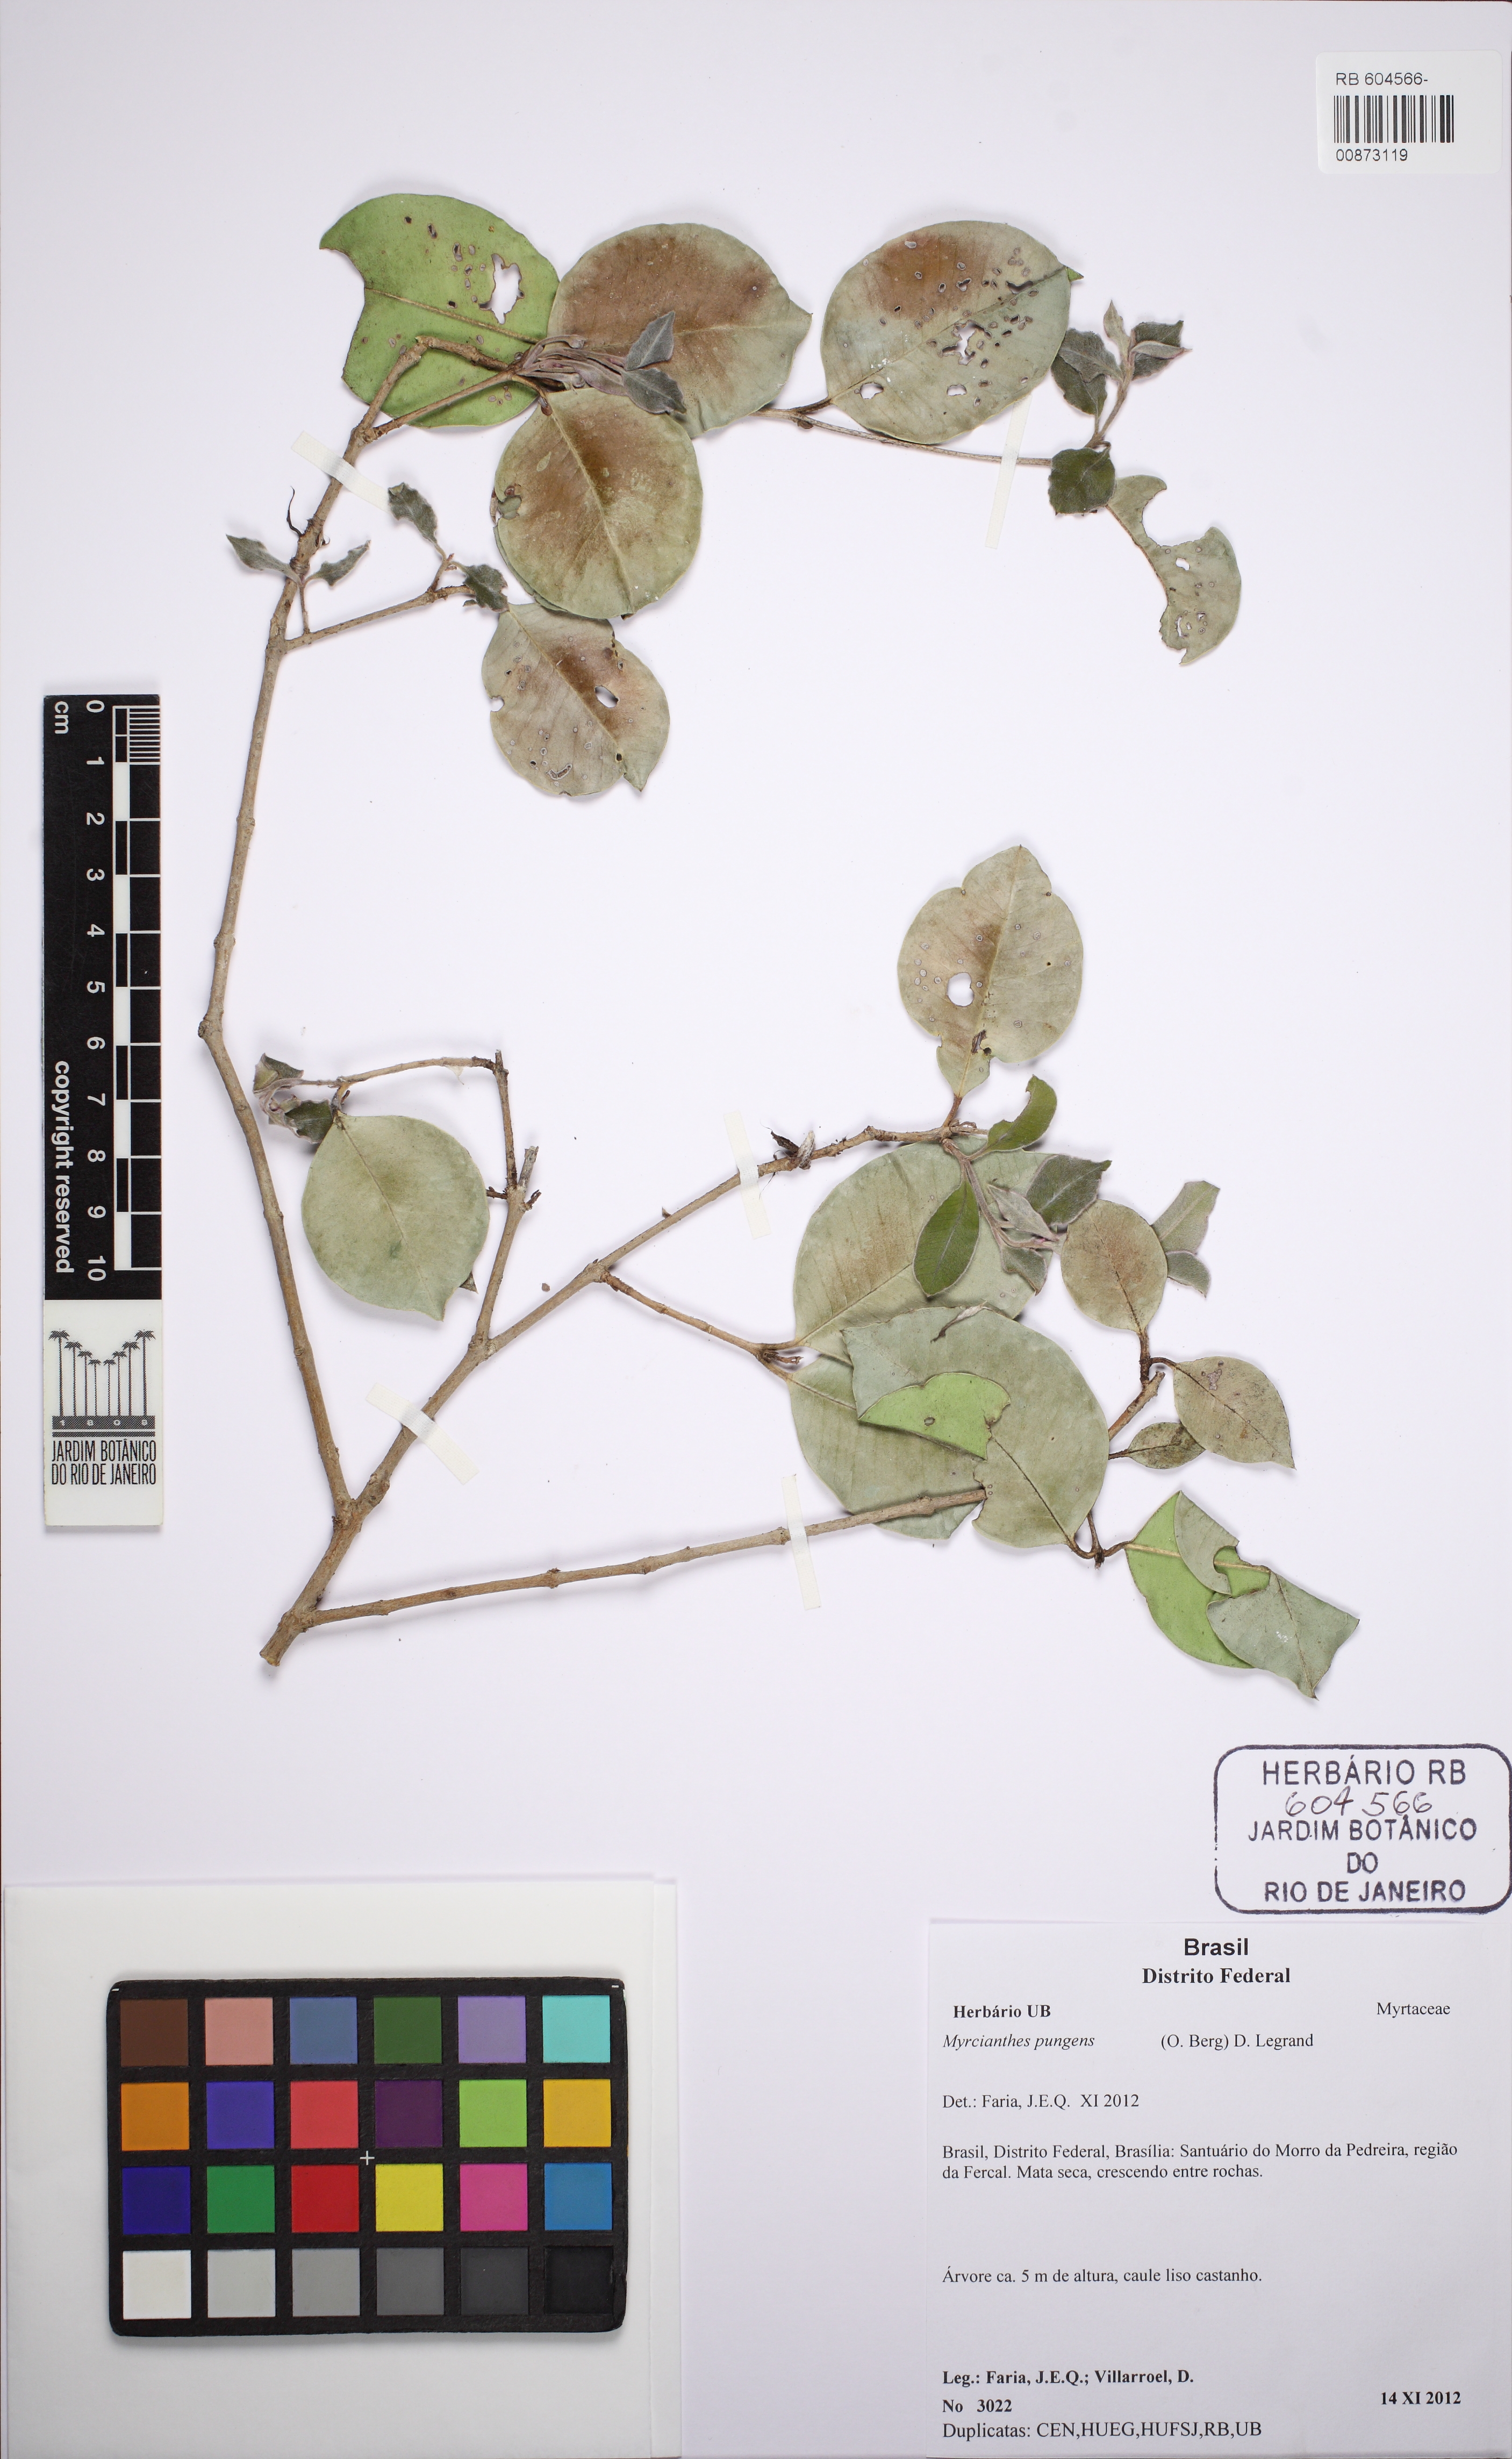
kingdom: Plantae
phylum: Tracheophyta
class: Magnoliopsida
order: Myrtales
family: Myrtaceae
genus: Myrcianthes
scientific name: Myrcianthes pungens
